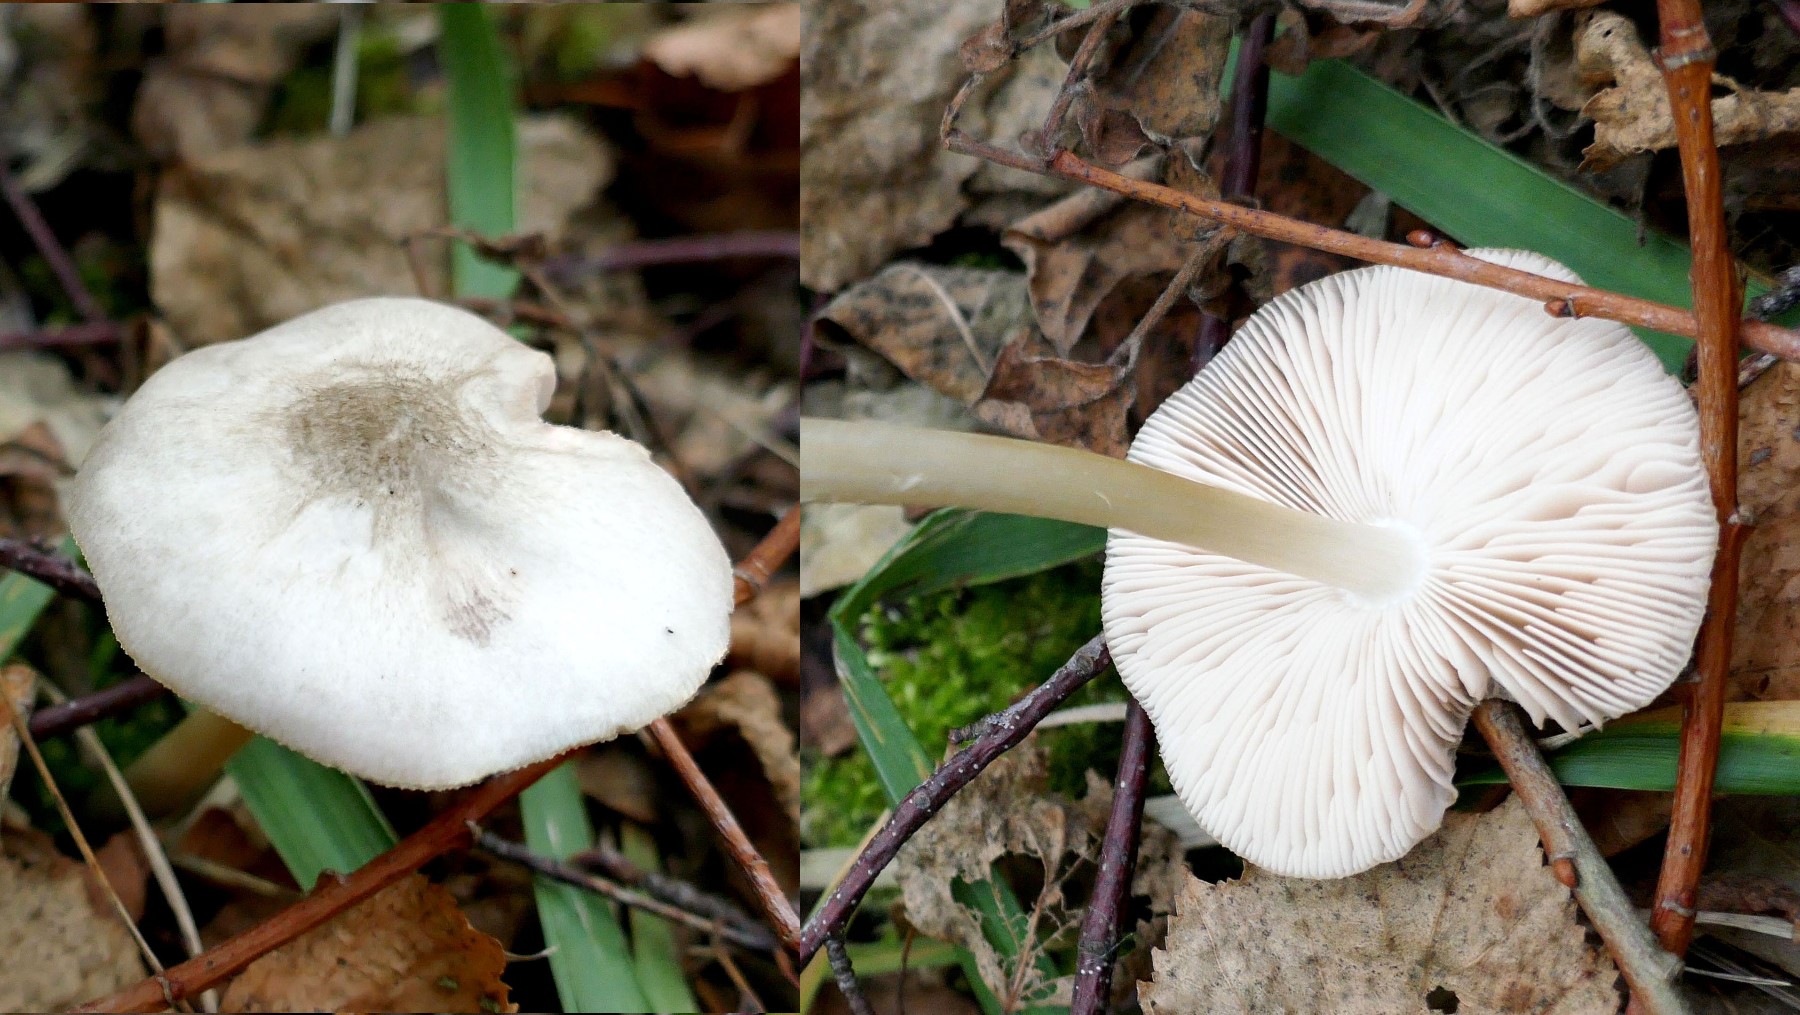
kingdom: Fungi
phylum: Basidiomycota
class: Agaricomycetes
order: Agaricales
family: Pluteaceae
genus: Pluteus
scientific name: Pluteus salicinus
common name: stiv skærmhat
